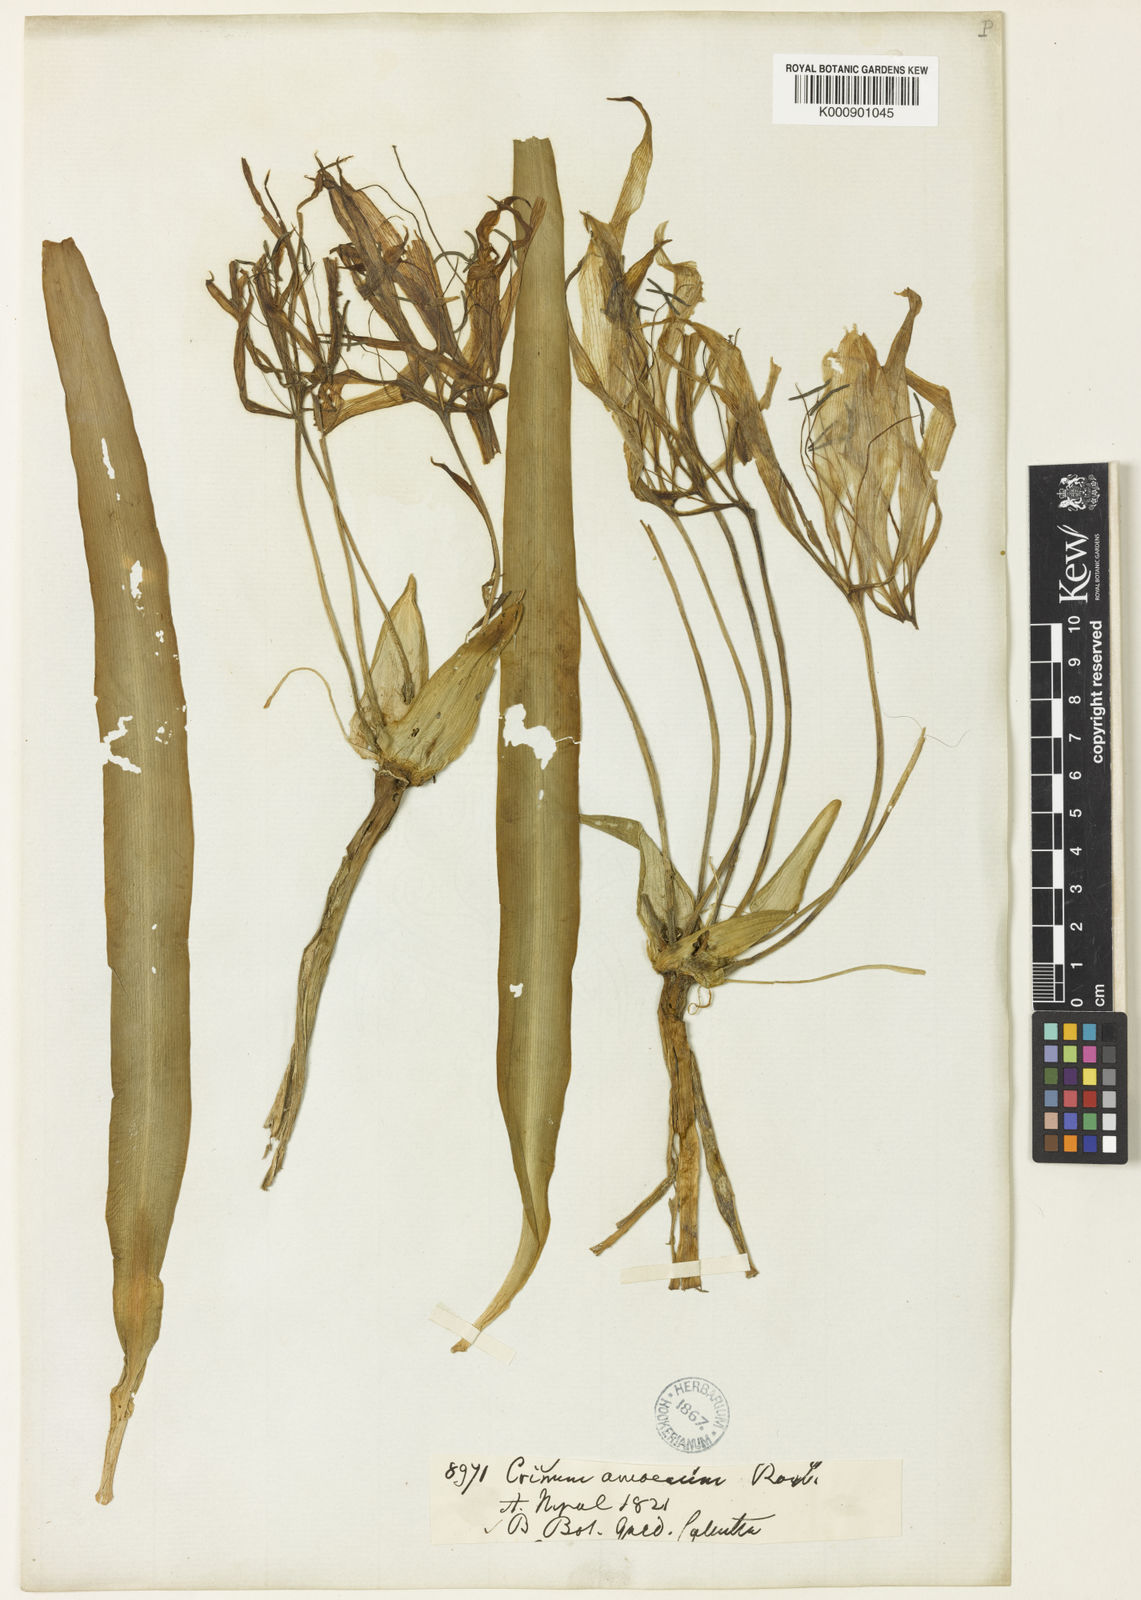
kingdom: Plantae
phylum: Tracheophyta
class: Liliopsida
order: Asparagales
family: Amaryllidaceae
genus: Crinum
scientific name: Crinum amoenum
